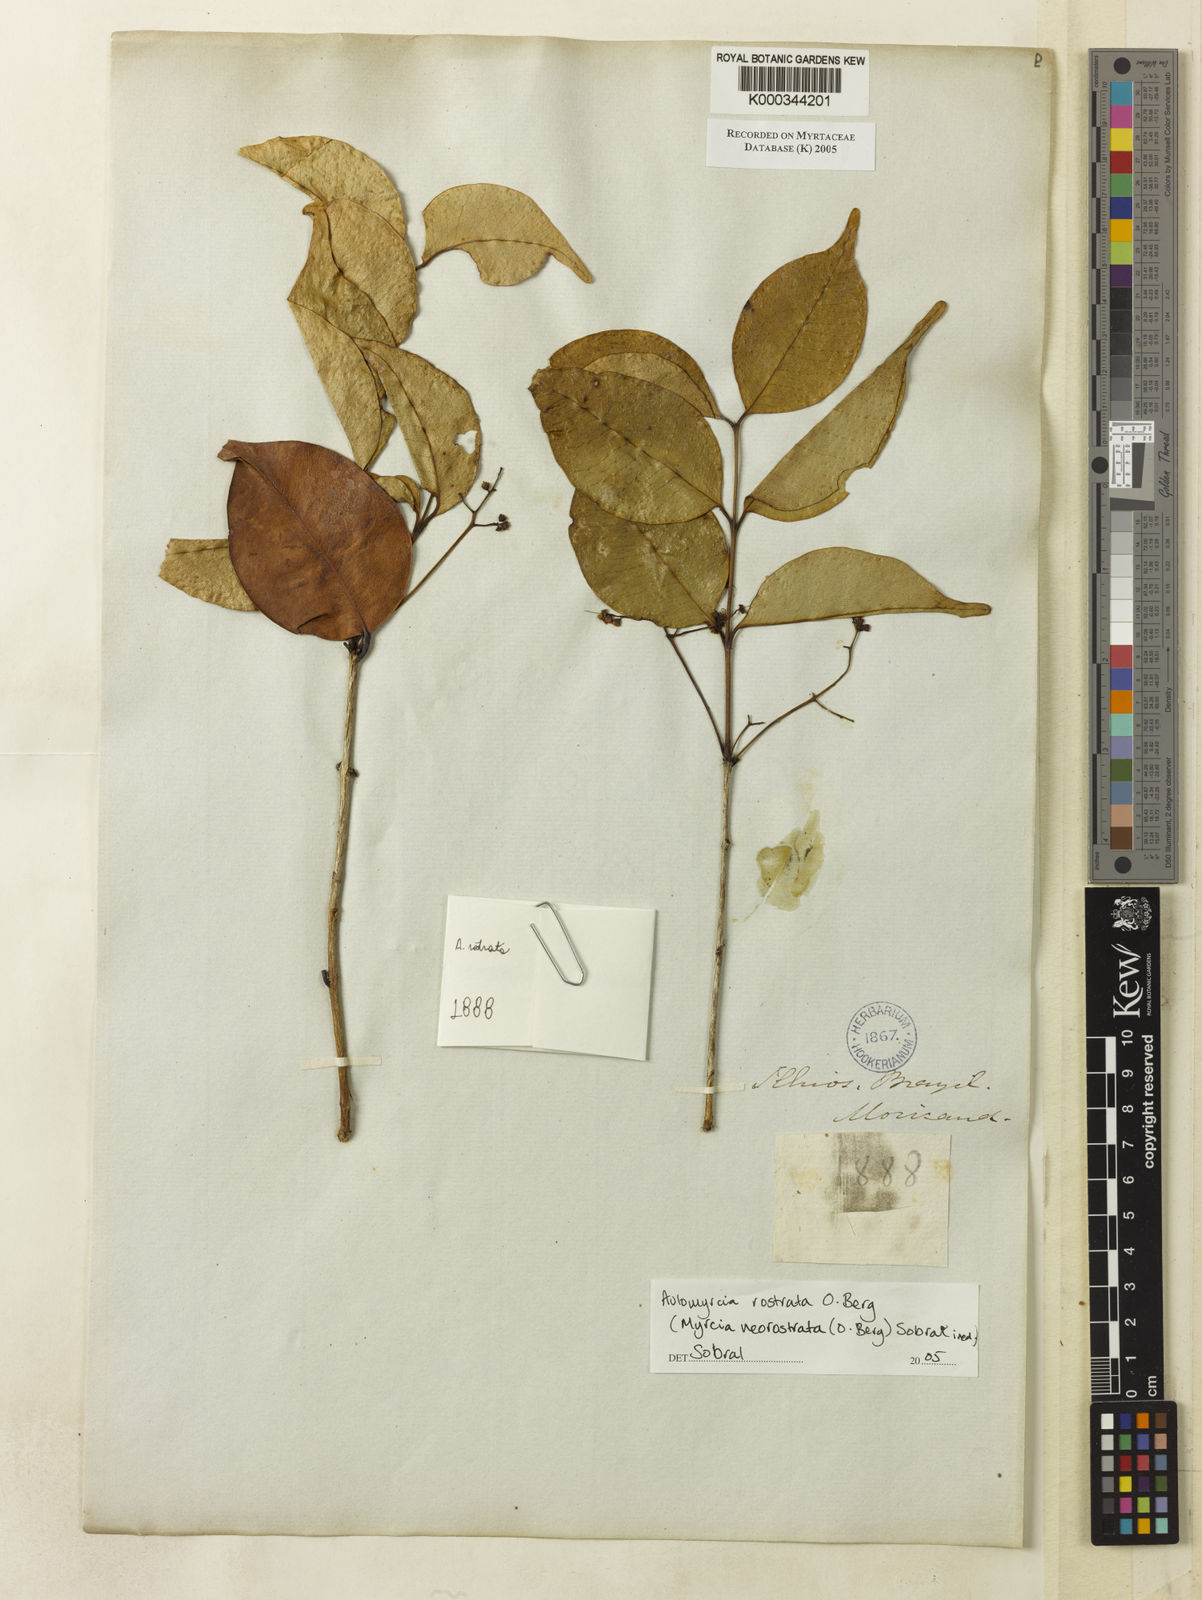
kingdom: Plantae
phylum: Tracheophyta
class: Magnoliopsida
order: Myrtales
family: Myrtaceae
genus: Myrcia
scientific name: Myrcia neorostrata
